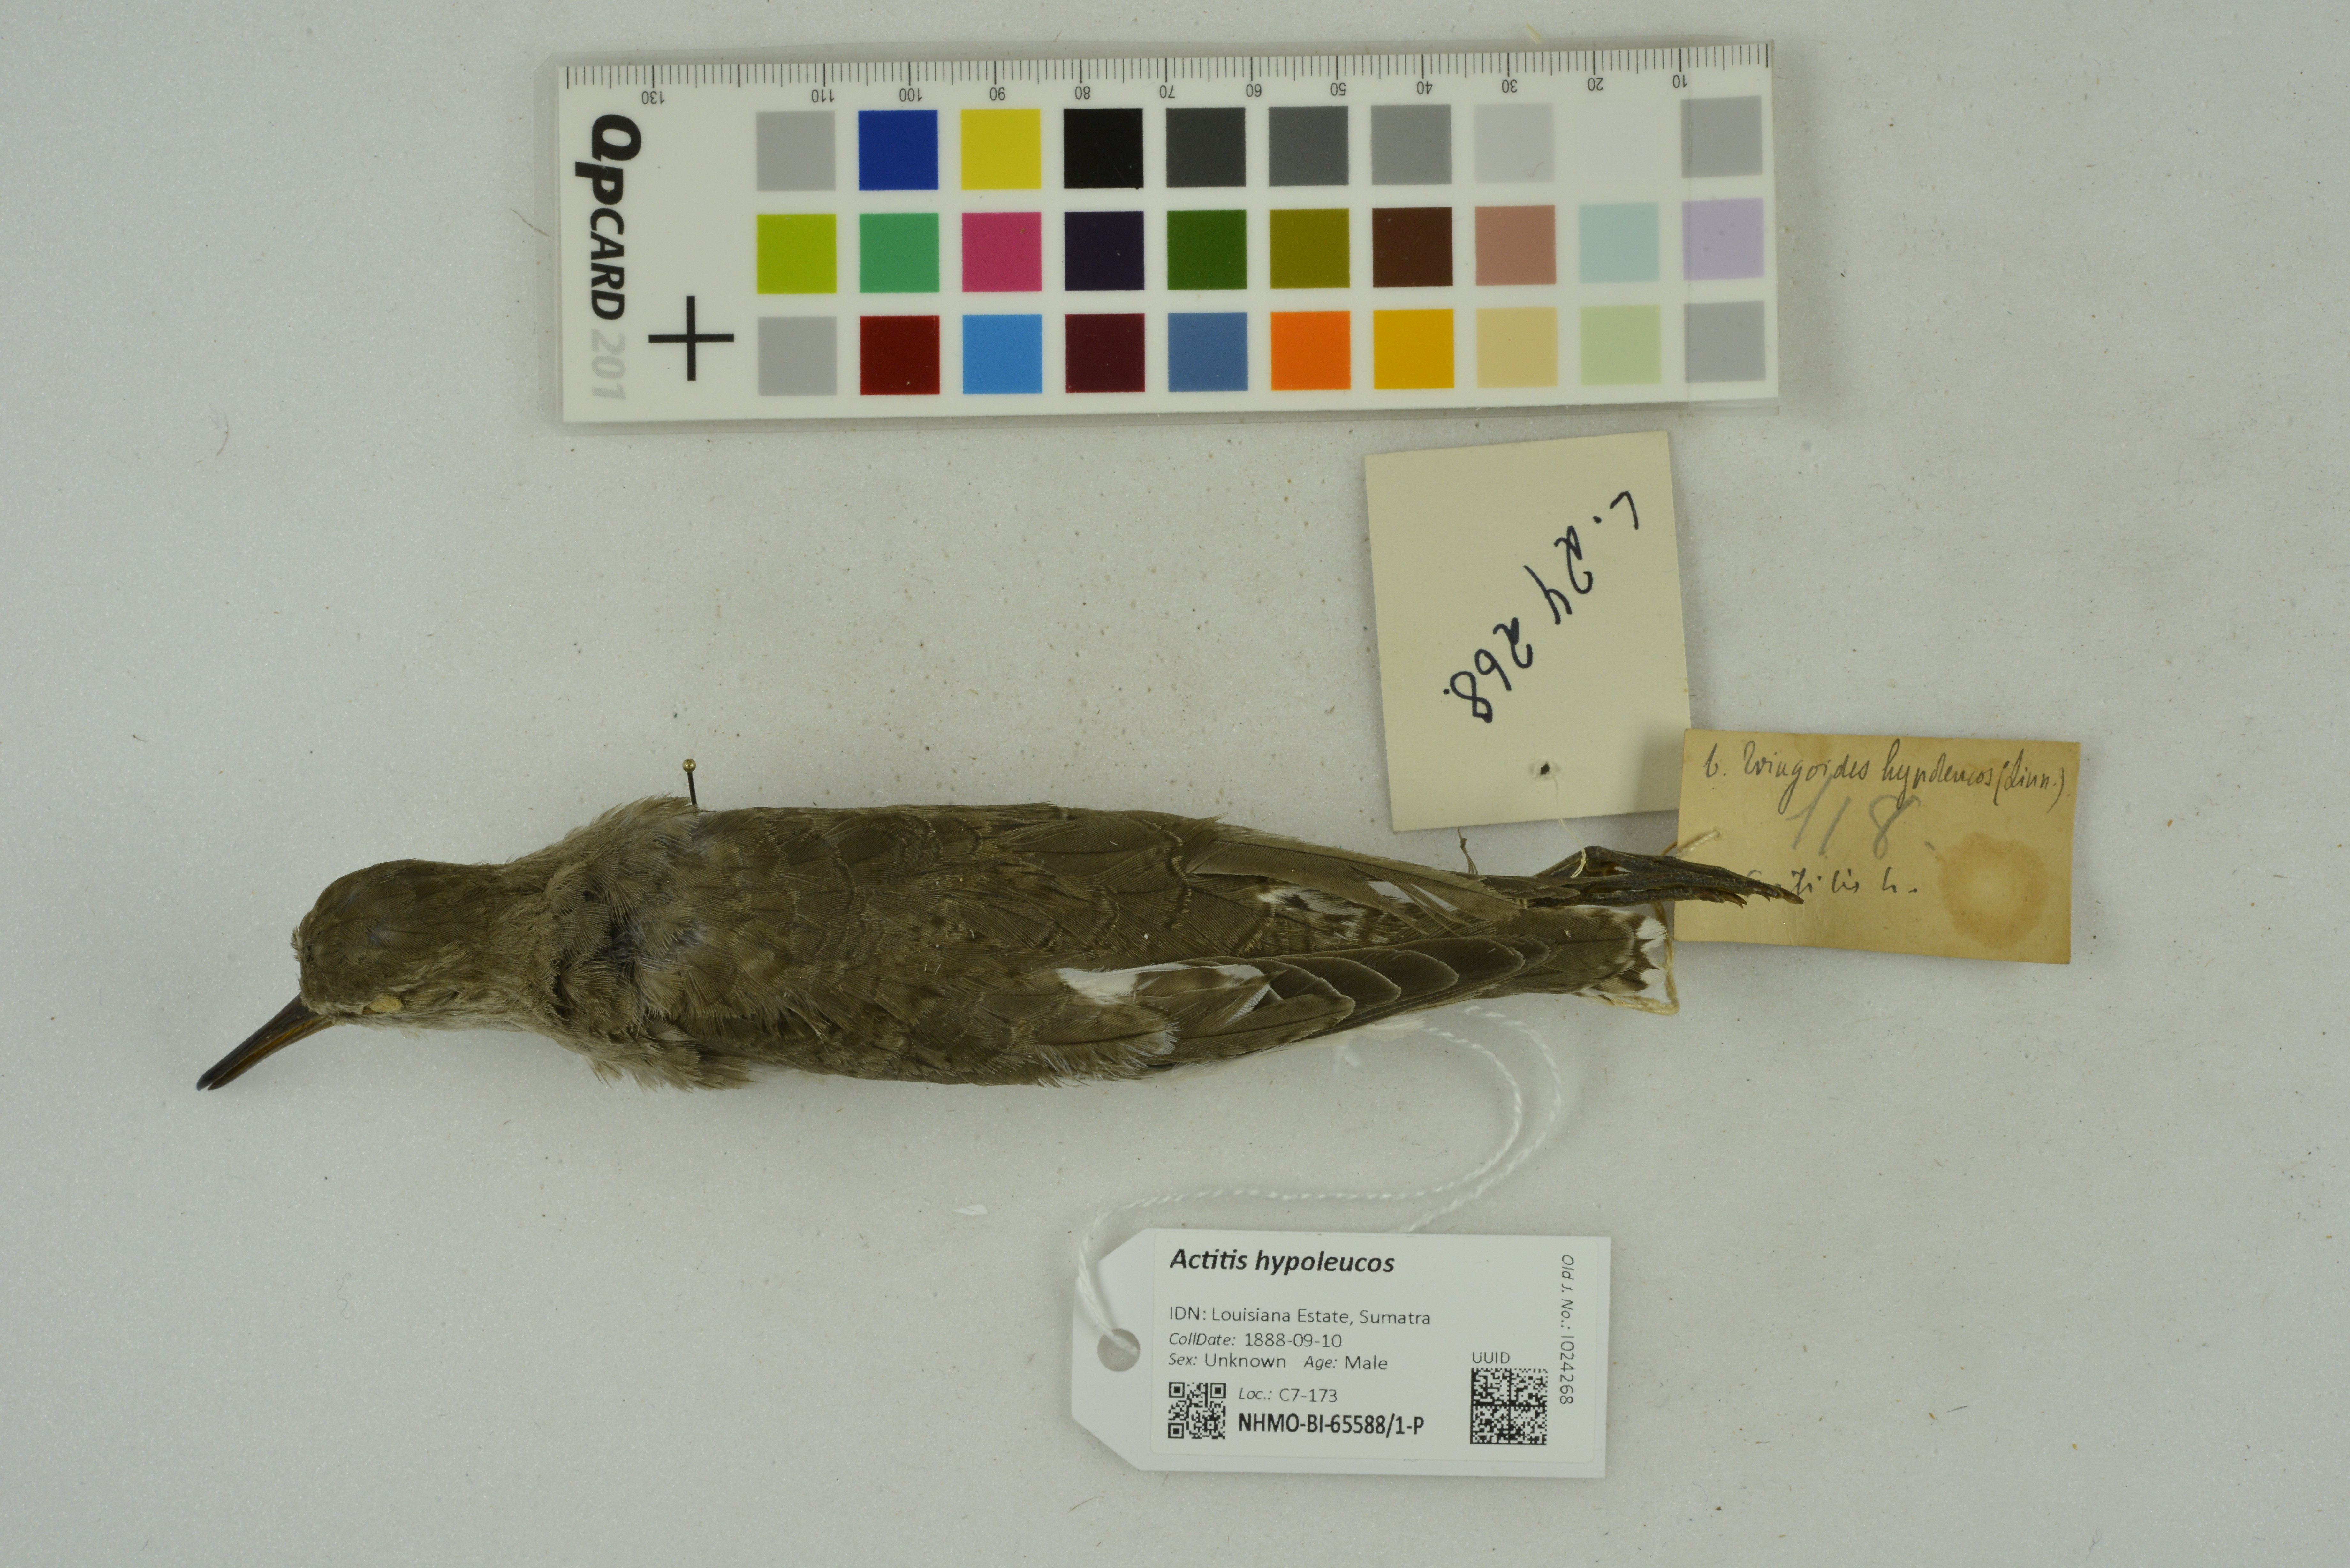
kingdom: Animalia
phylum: Chordata
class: Aves
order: Charadriiformes
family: Scolopacidae
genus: Actitis
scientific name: Actitis hypoleucos
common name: Common sandpiper
